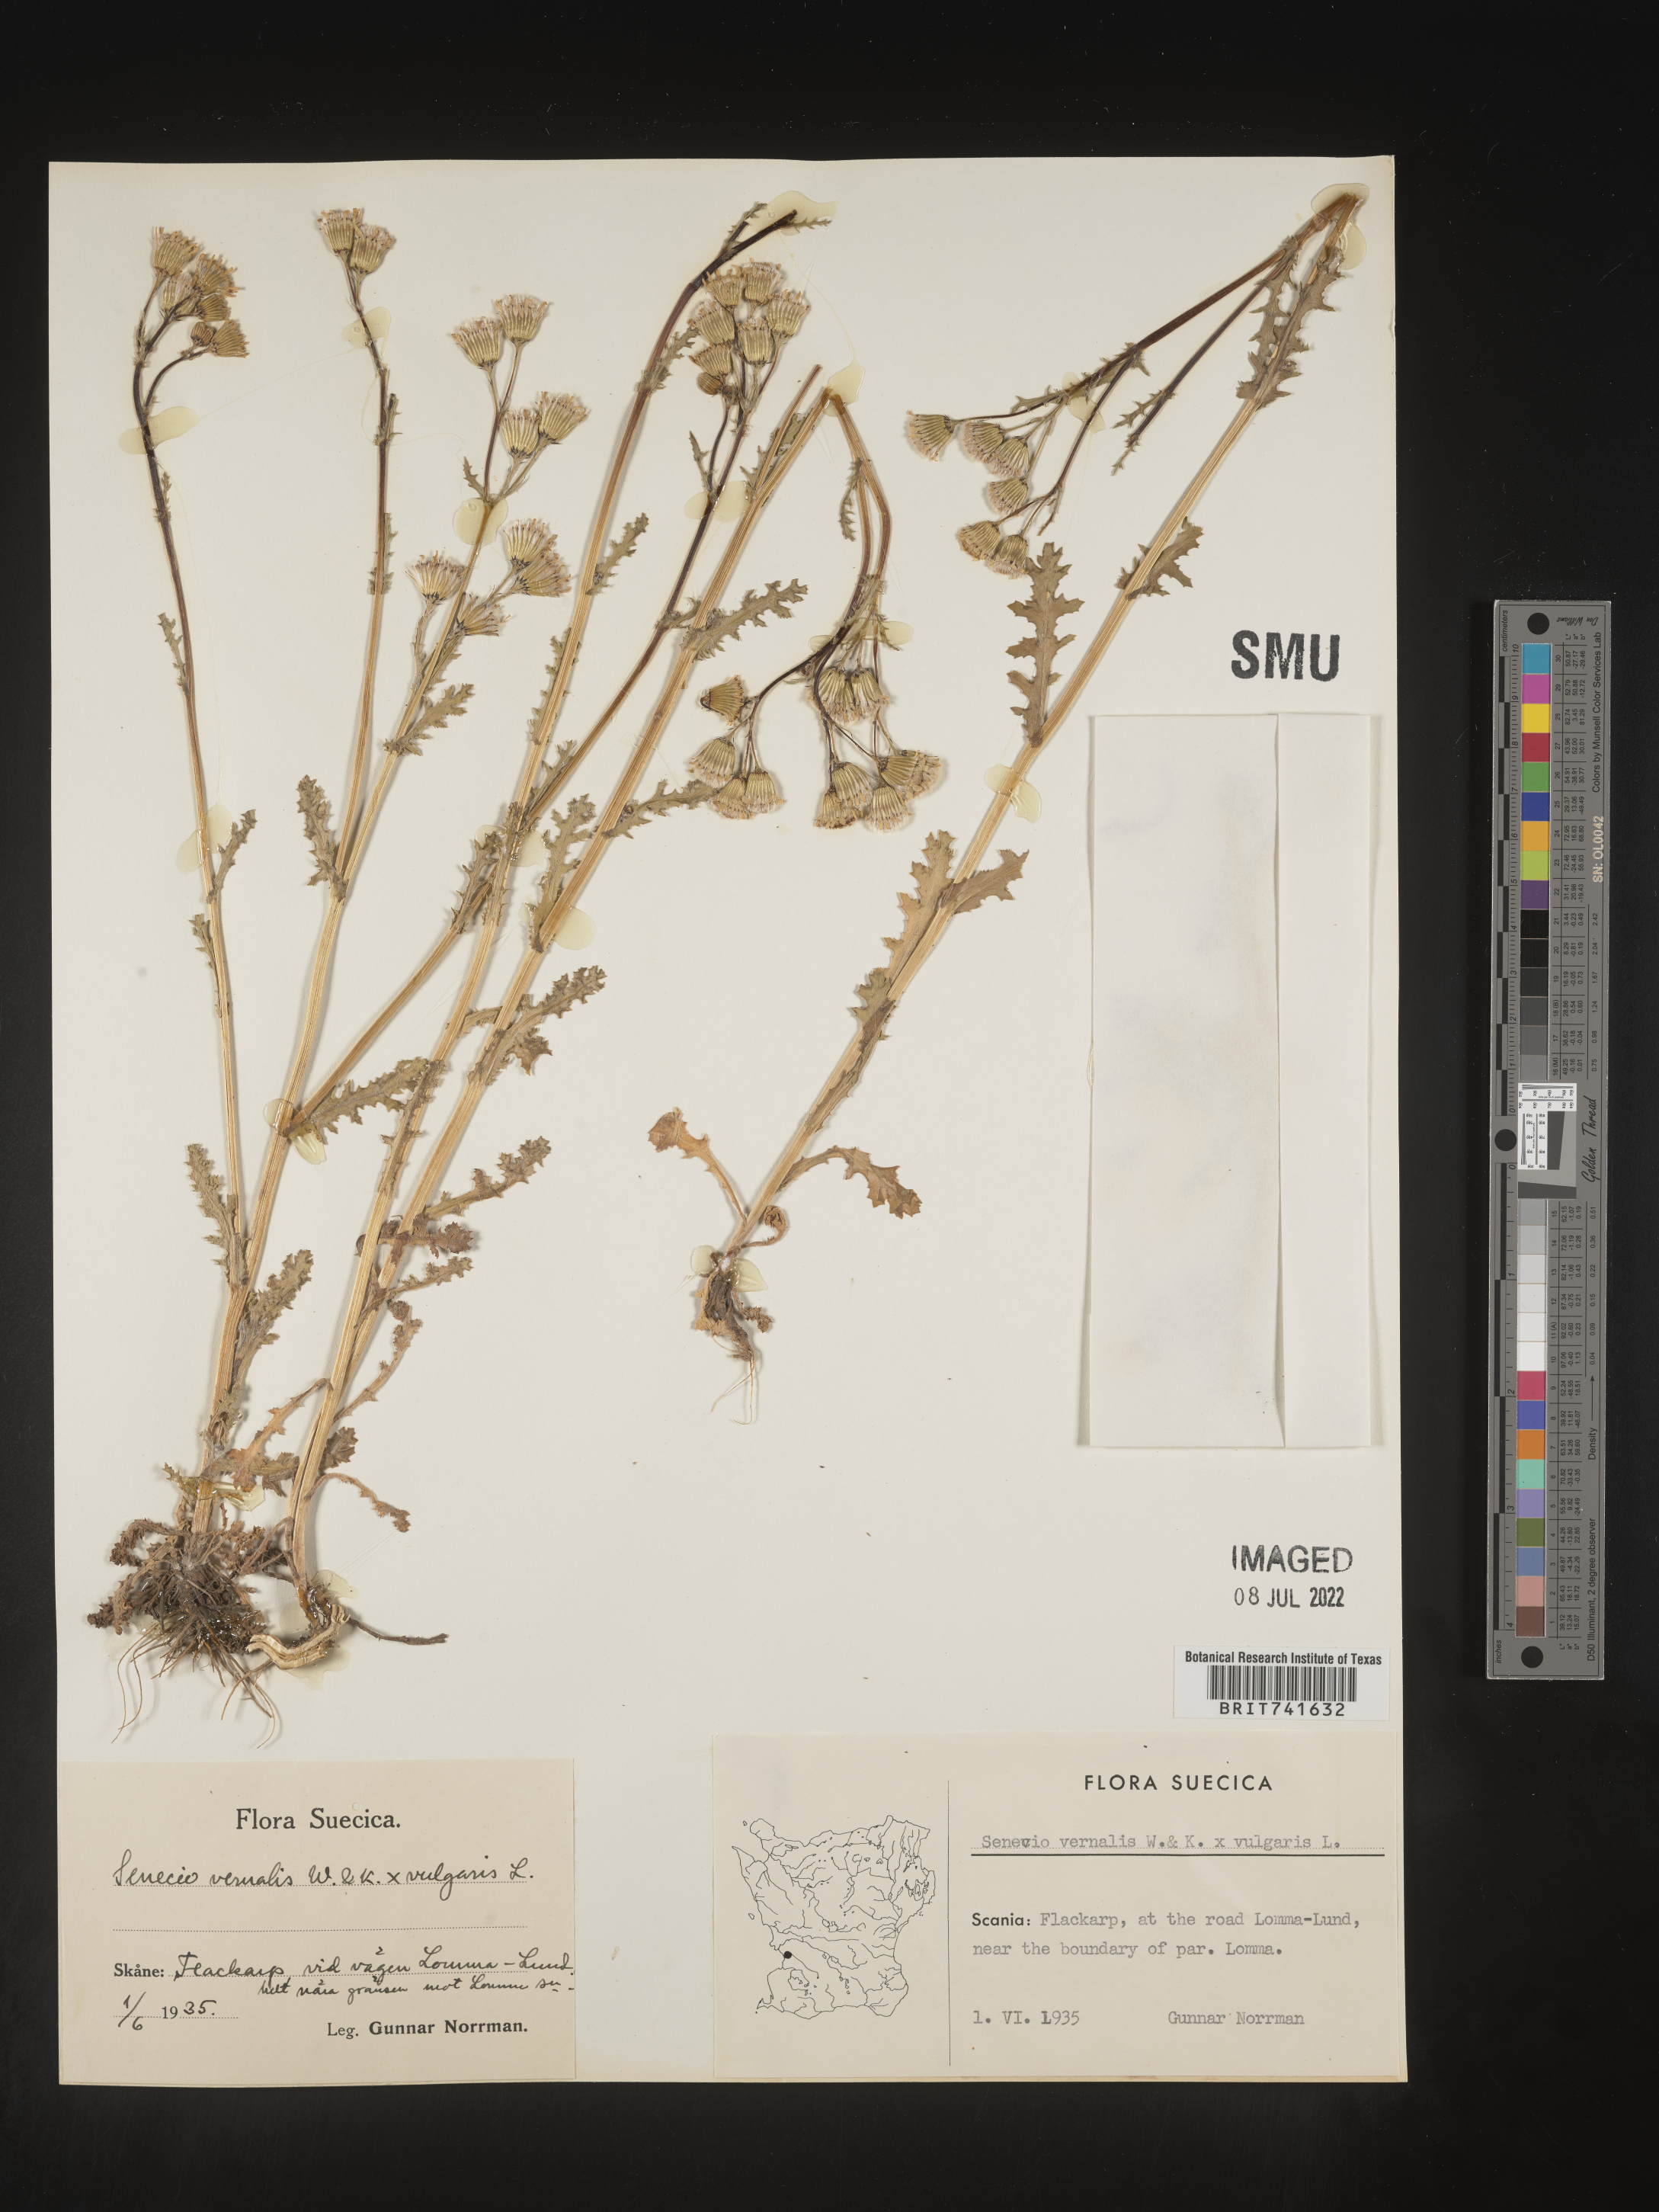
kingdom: Plantae
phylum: Tracheophyta
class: Magnoliopsida
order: Asterales
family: Asteraceae
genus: Senecio
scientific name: Senecio vernalis
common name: Eastern groundsel
